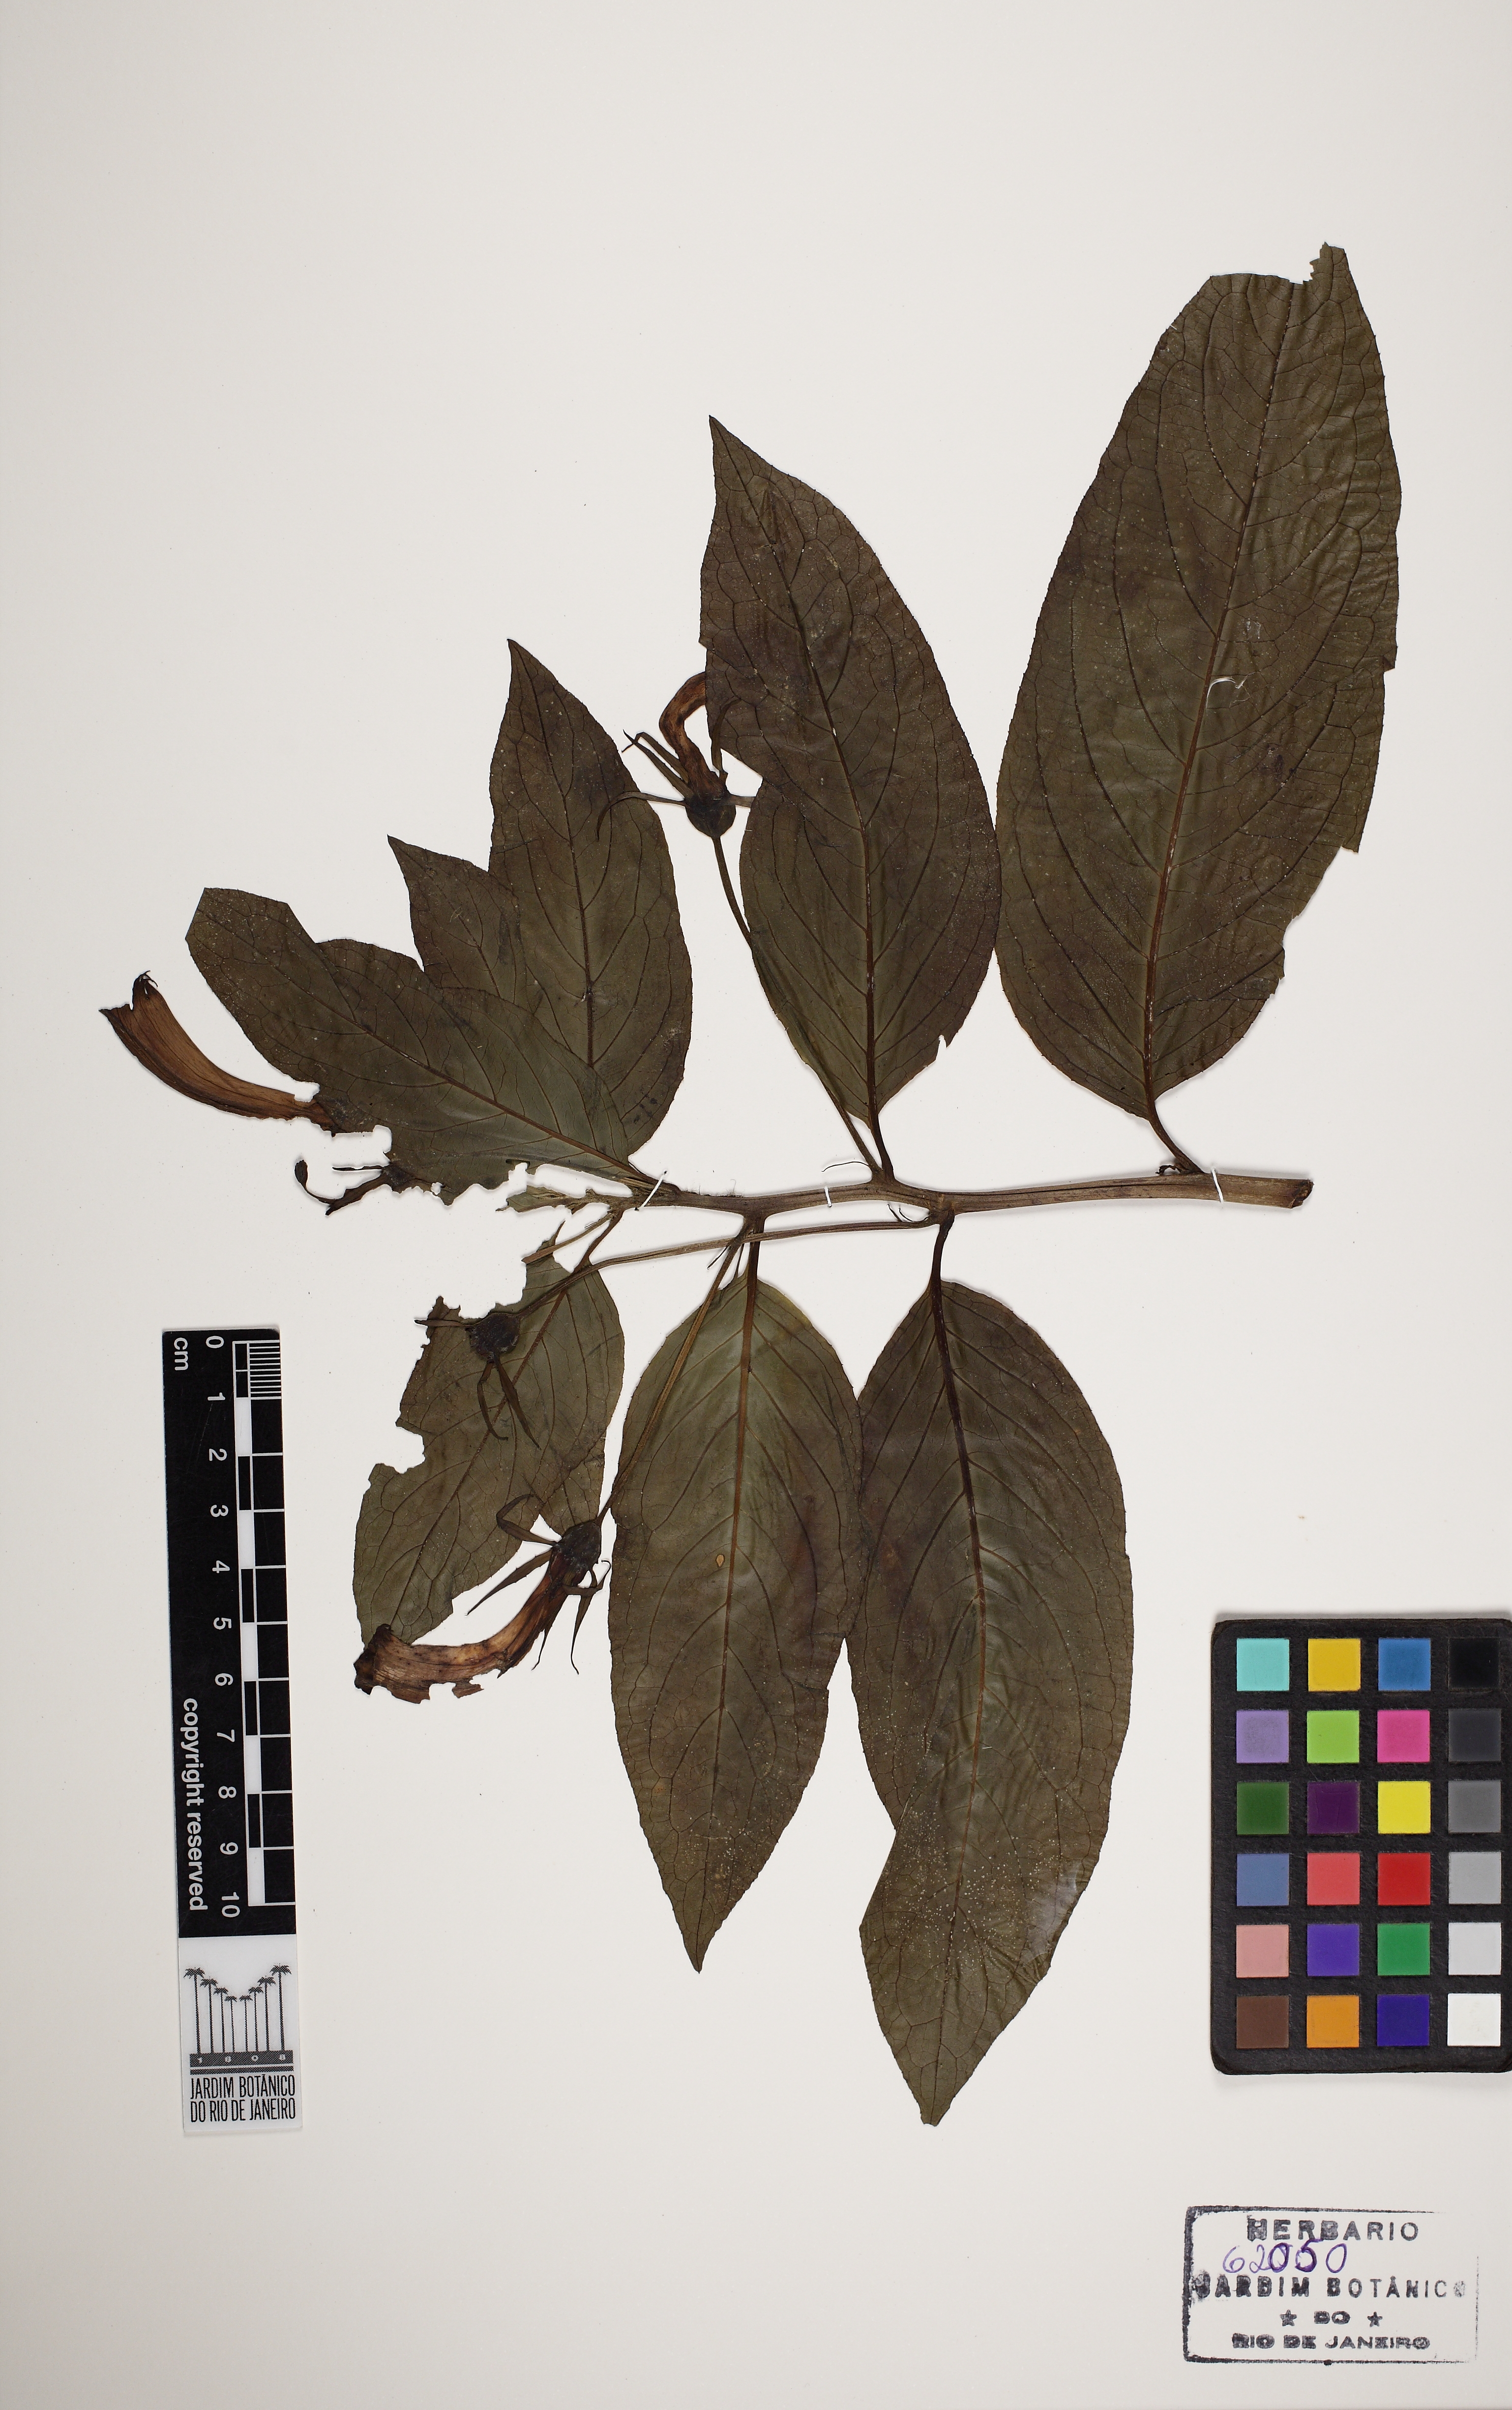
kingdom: Plantae
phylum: Tracheophyta
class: Magnoliopsida
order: Asterales
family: Campanulaceae
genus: Centropogon
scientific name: Centropogon cornutus
